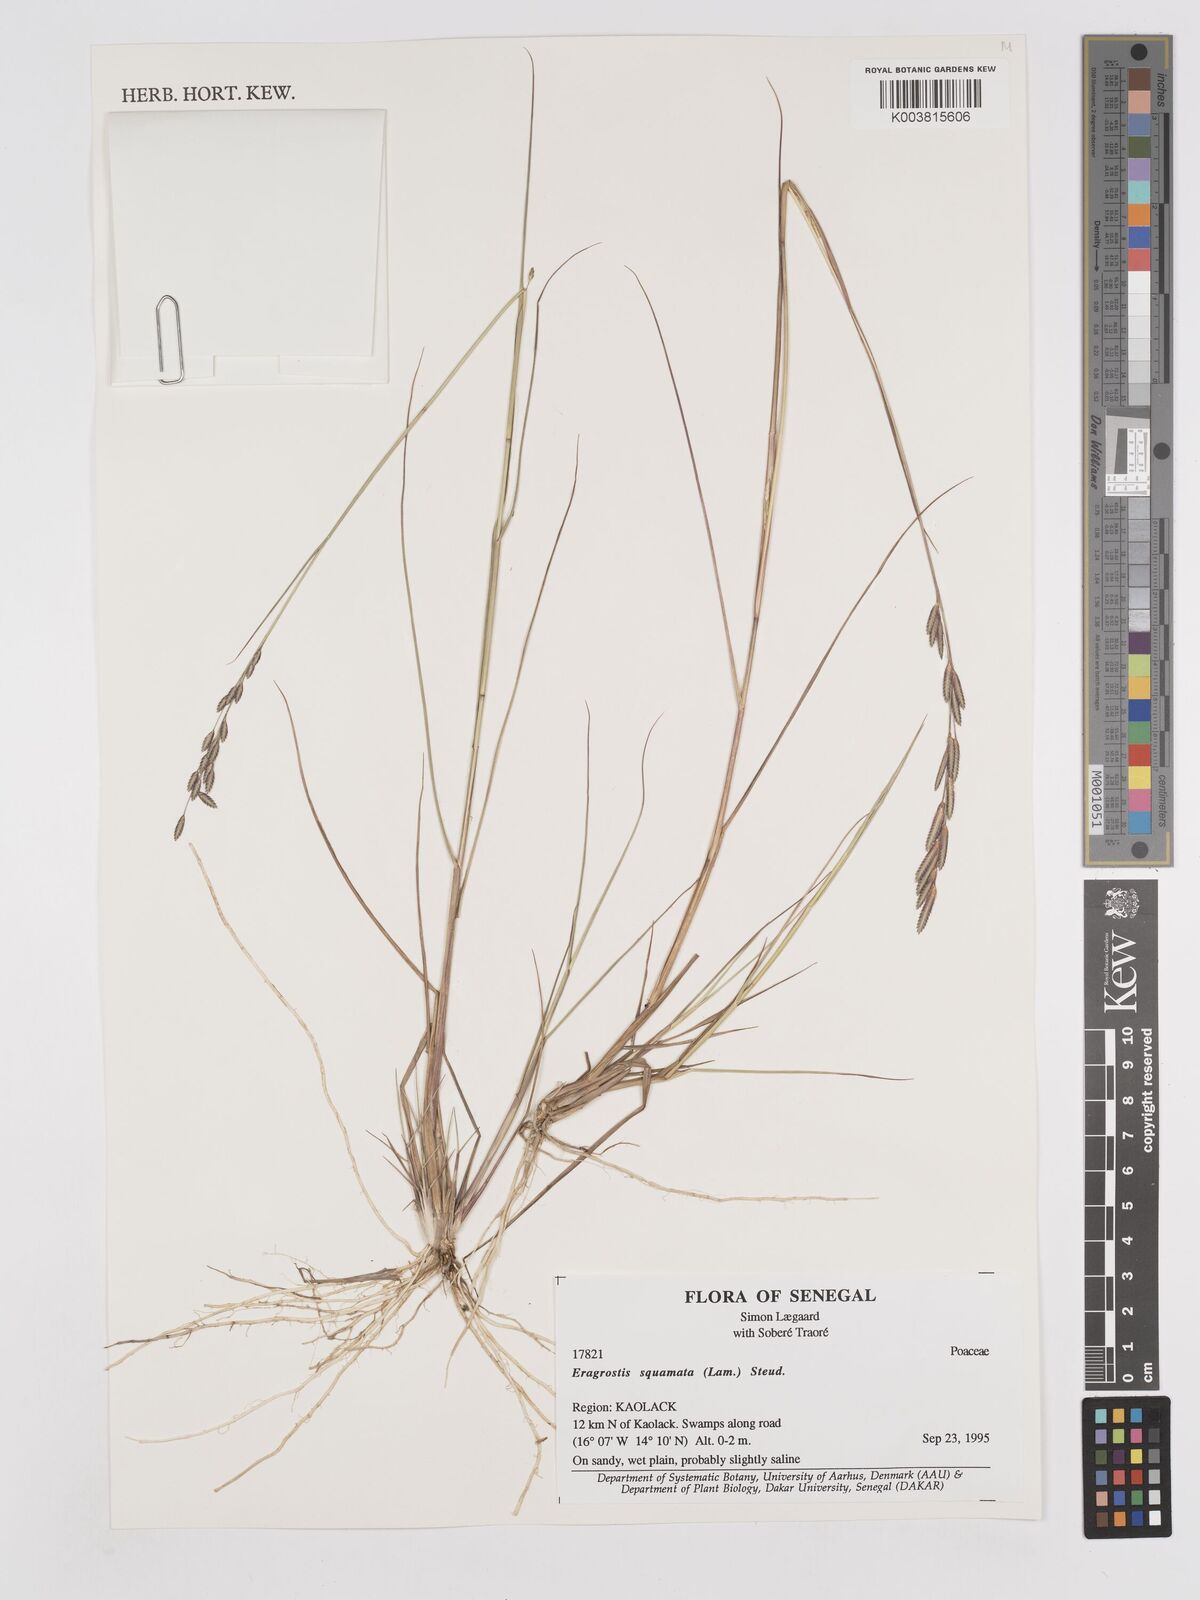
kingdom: Plantae
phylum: Tracheophyta
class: Liliopsida
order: Poales
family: Poaceae
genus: Eragrostis
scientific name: Eragrostis squamata
